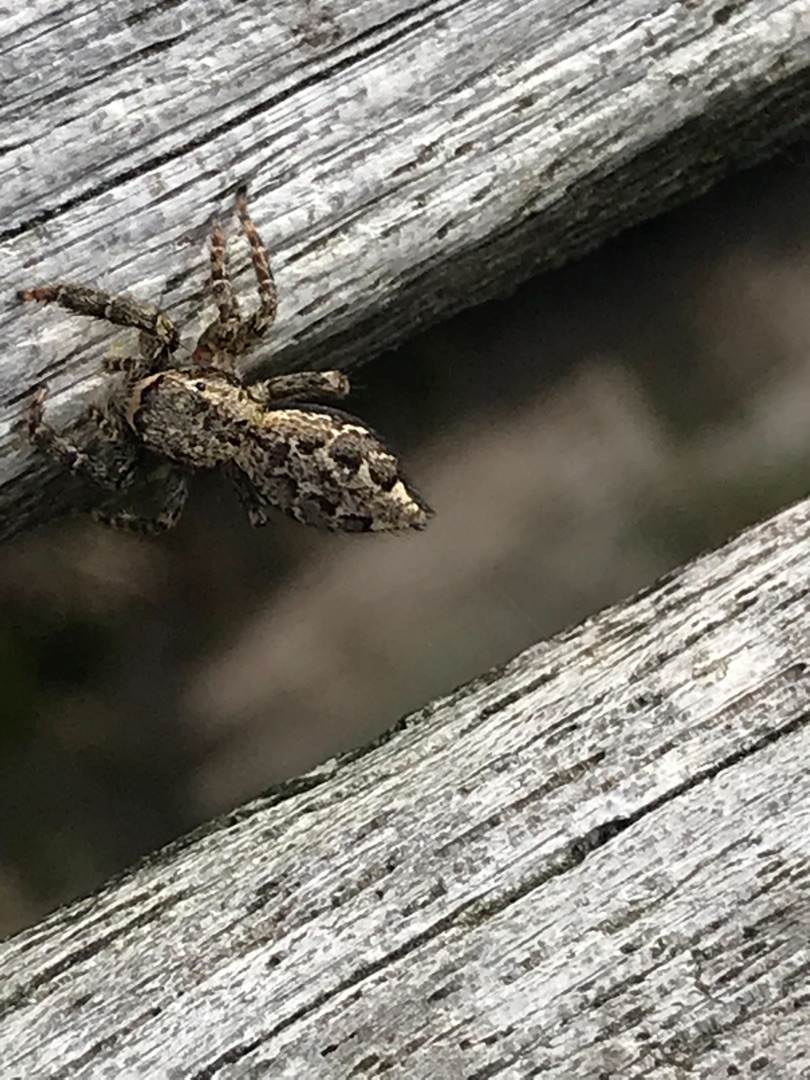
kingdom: Animalia
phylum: Arthropoda
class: Arachnida
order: Araneae
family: Salticidae
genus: Marpissa
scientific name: Marpissa muscosa
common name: Stor springedderkop
